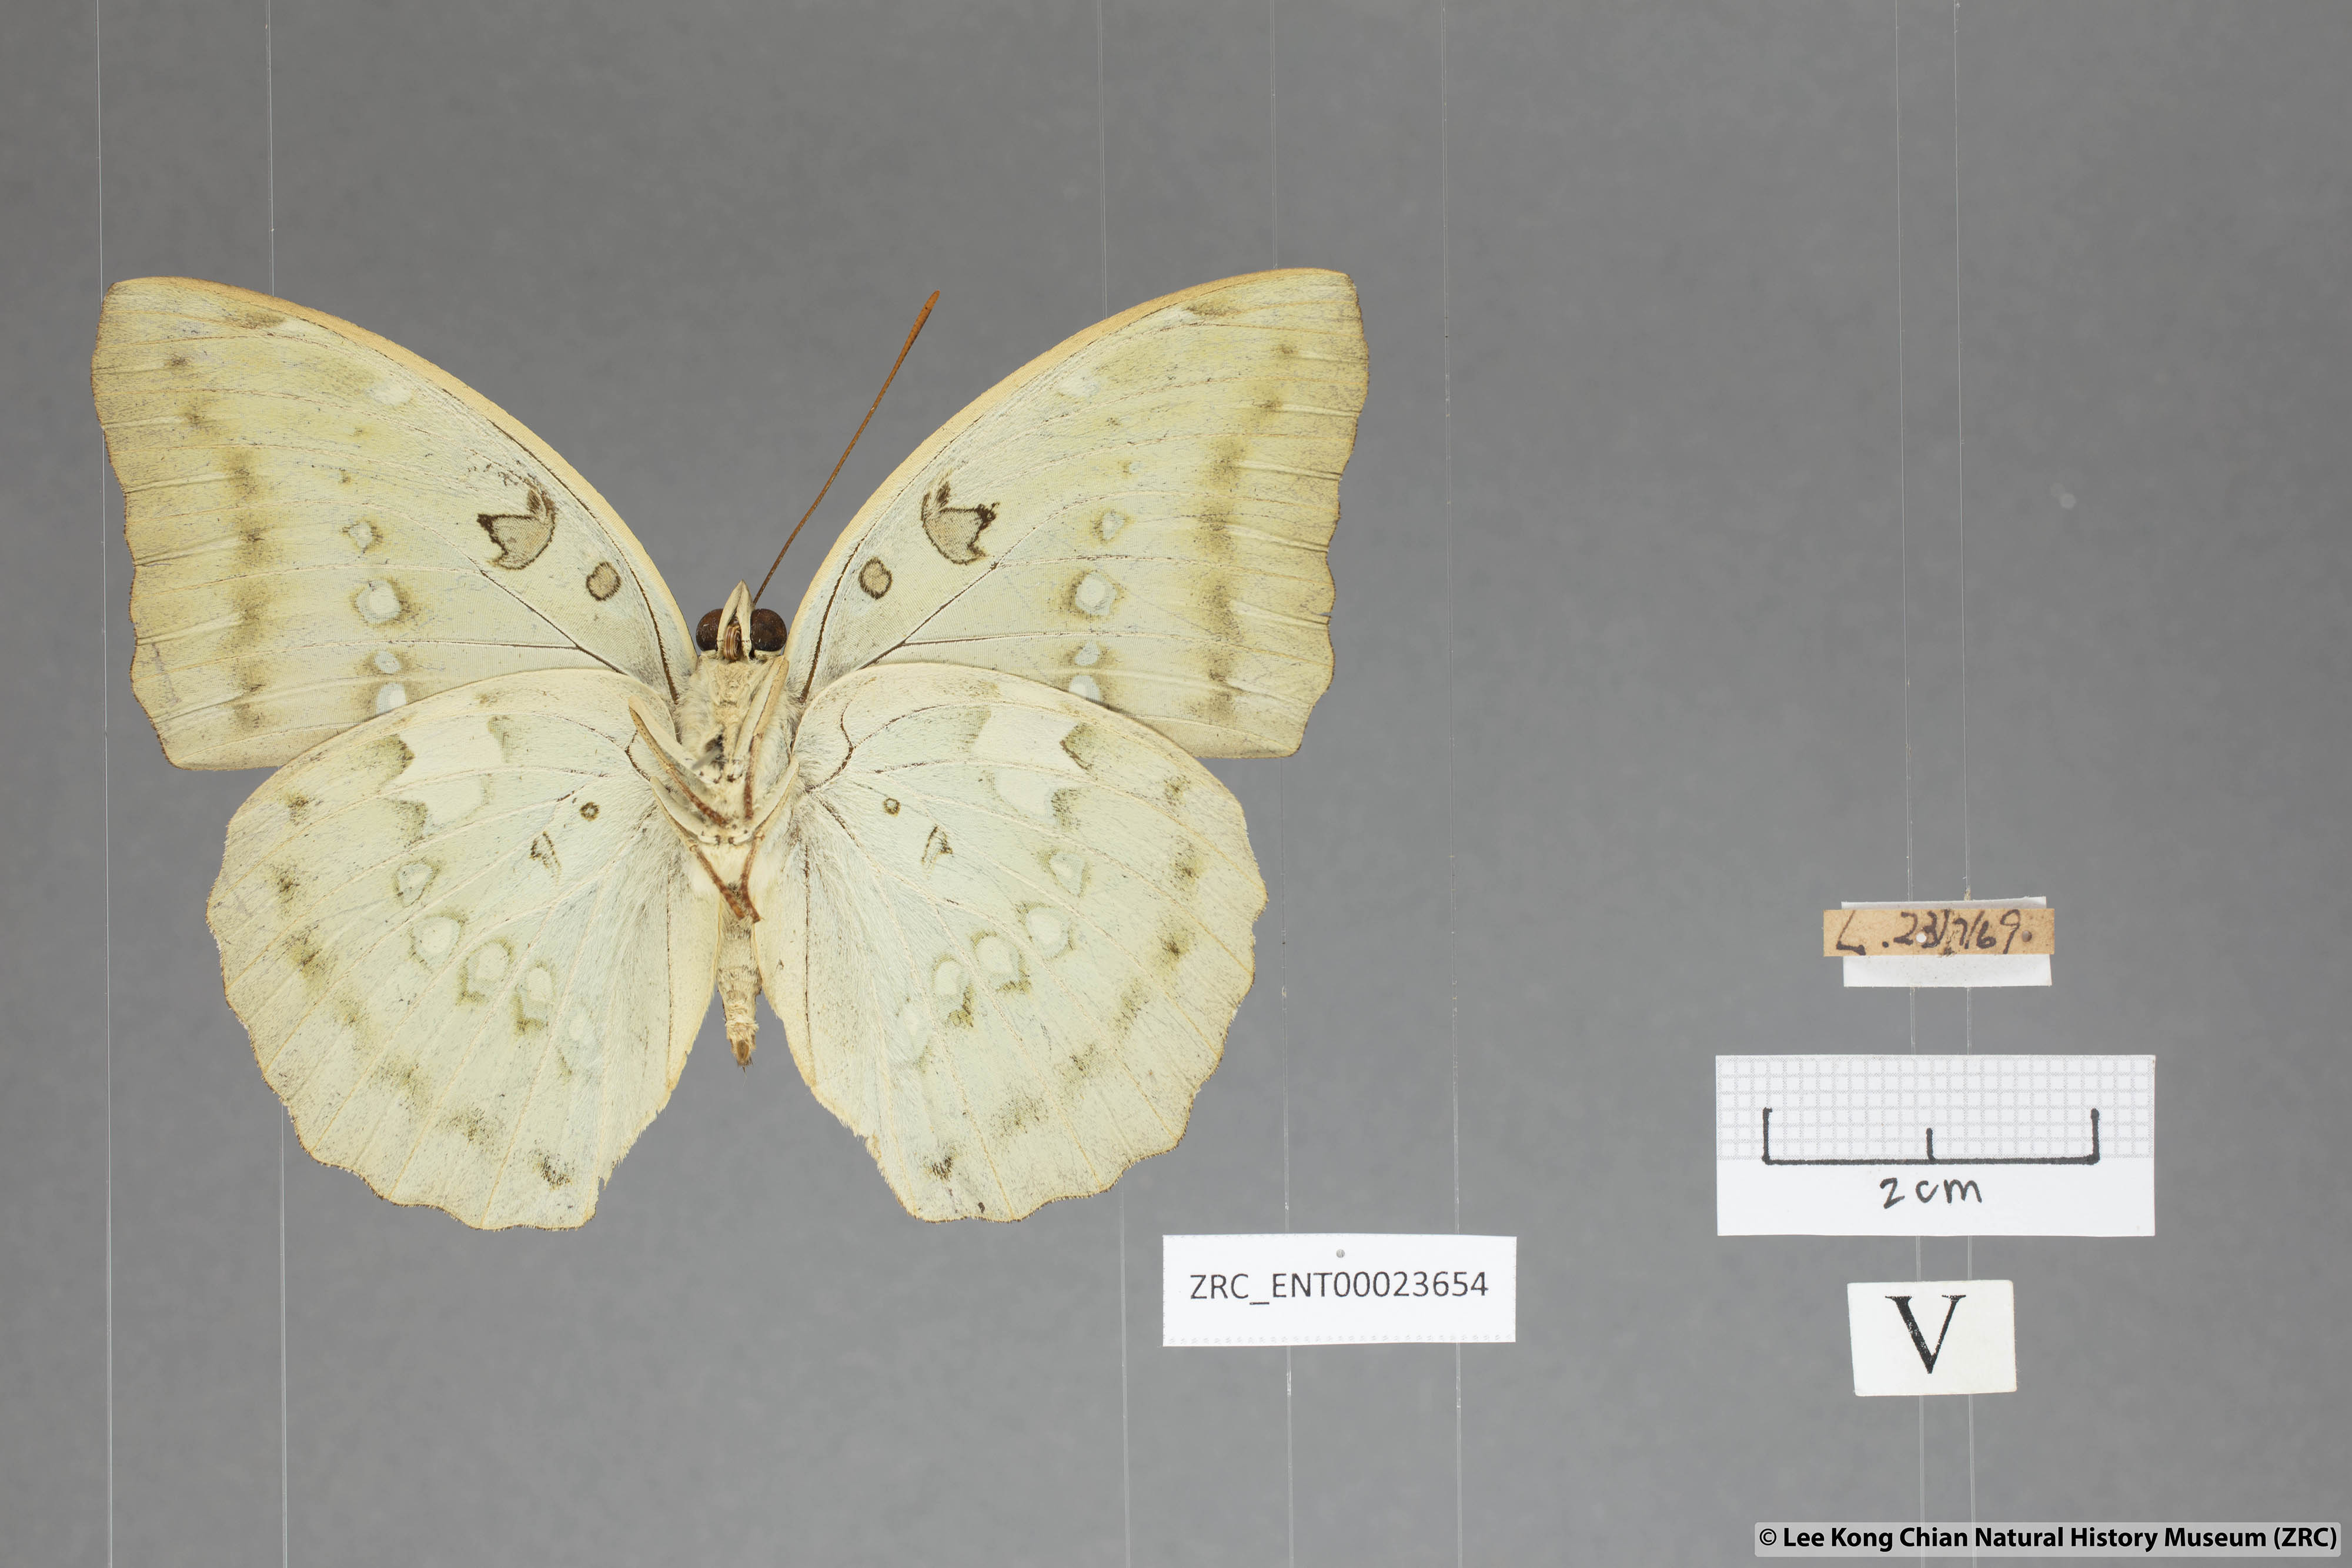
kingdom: Animalia
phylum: Arthropoda
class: Insecta
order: Lepidoptera
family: Nymphalidae
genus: Euthalia
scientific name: Euthalia Bassarona dunya
